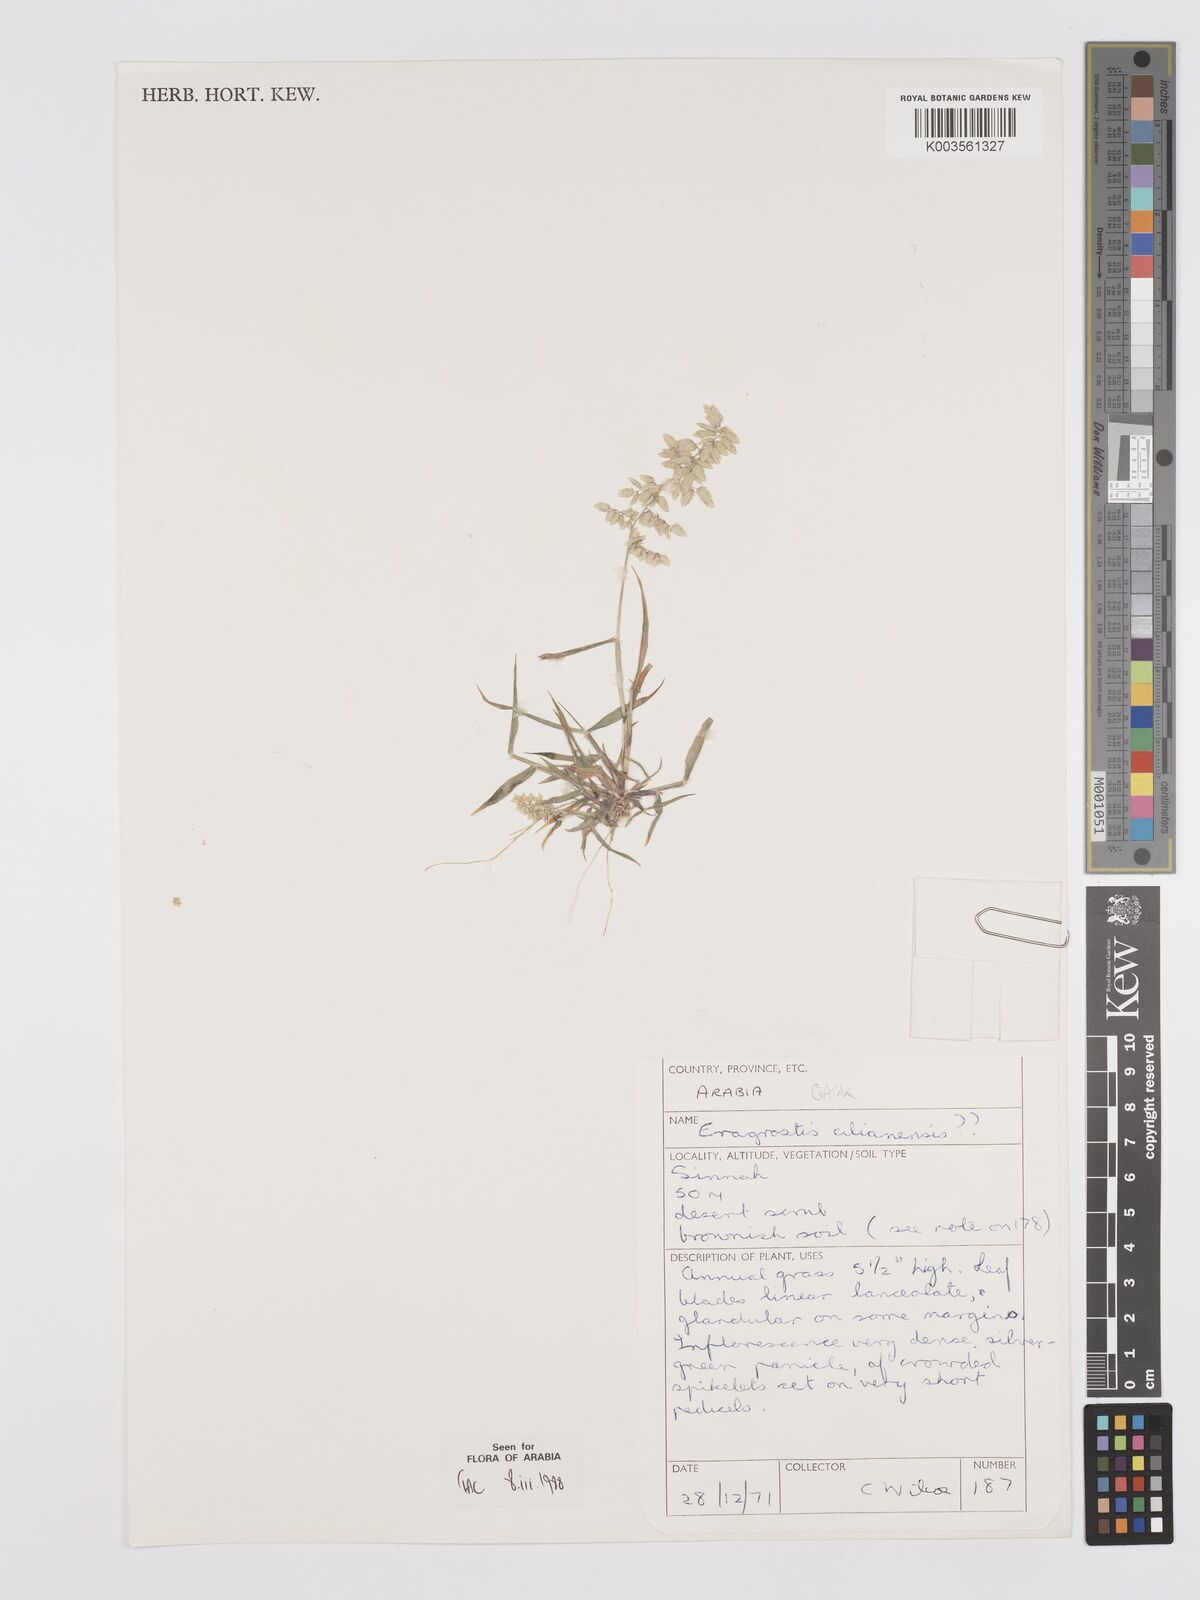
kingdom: Plantae
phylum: Tracheophyta
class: Liliopsida
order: Poales
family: Poaceae
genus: Eragrostis
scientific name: Eragrostis cilianensis
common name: Stinkgrass
